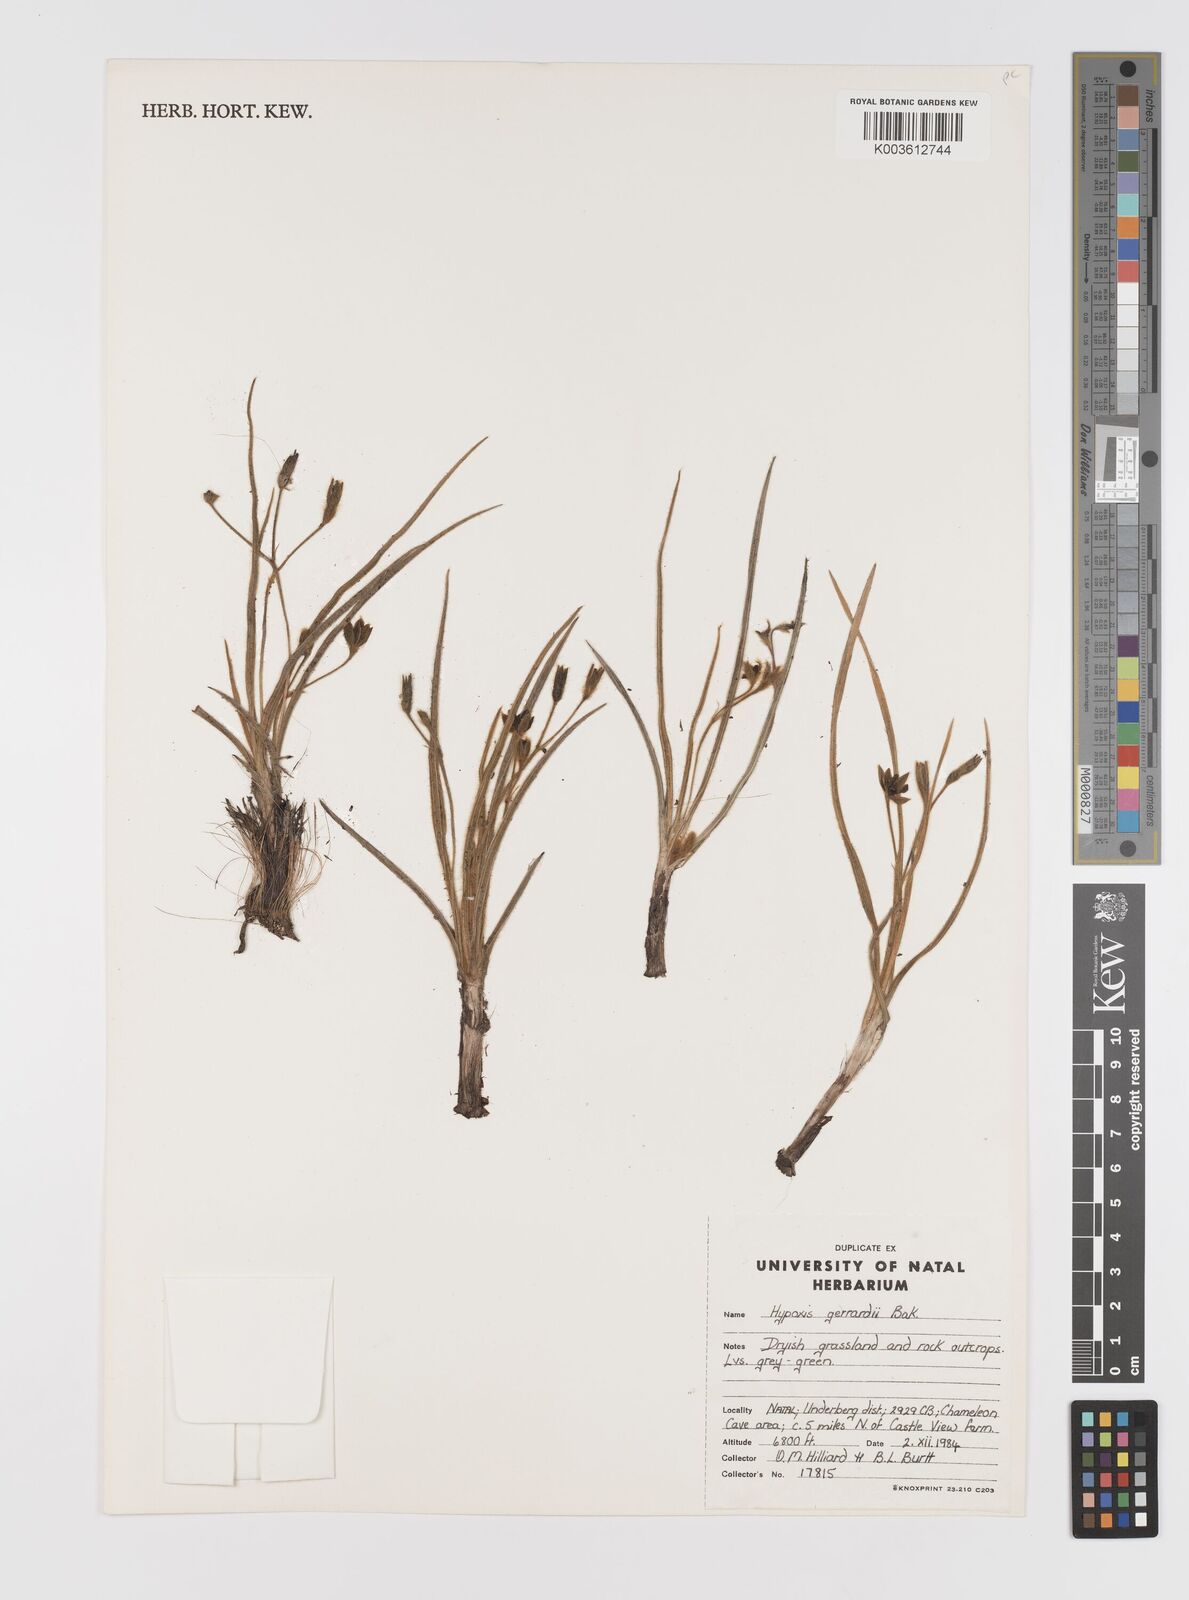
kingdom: Plantae
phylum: Tracheophyta
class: Liliopsida
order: Asparagales
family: Hypoxidaceae
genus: Hypoxis
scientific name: Hypoxis gerrardii
